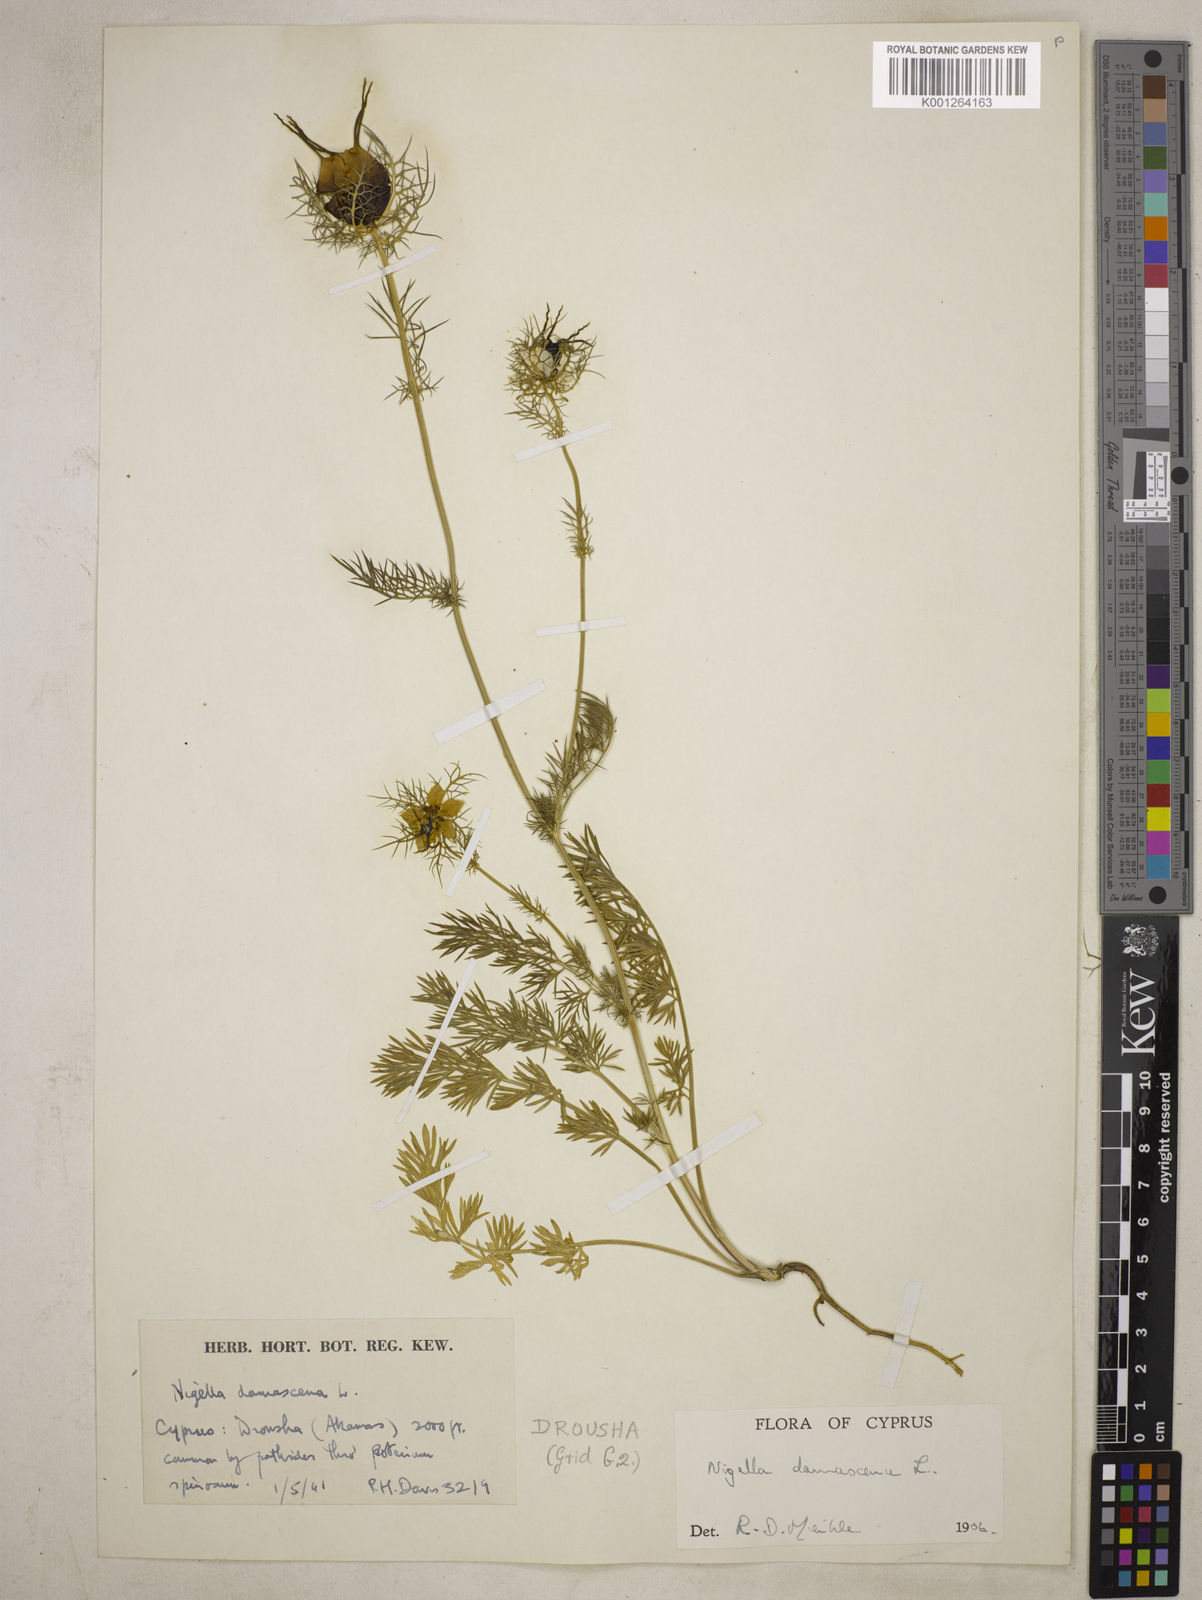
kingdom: Plantae
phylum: Tracheophyta
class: Magnoliopsida
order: Ranunculales
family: Ranunculaceae
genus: Nigella
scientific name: Nigella damascena
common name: Love-in-a-mist
